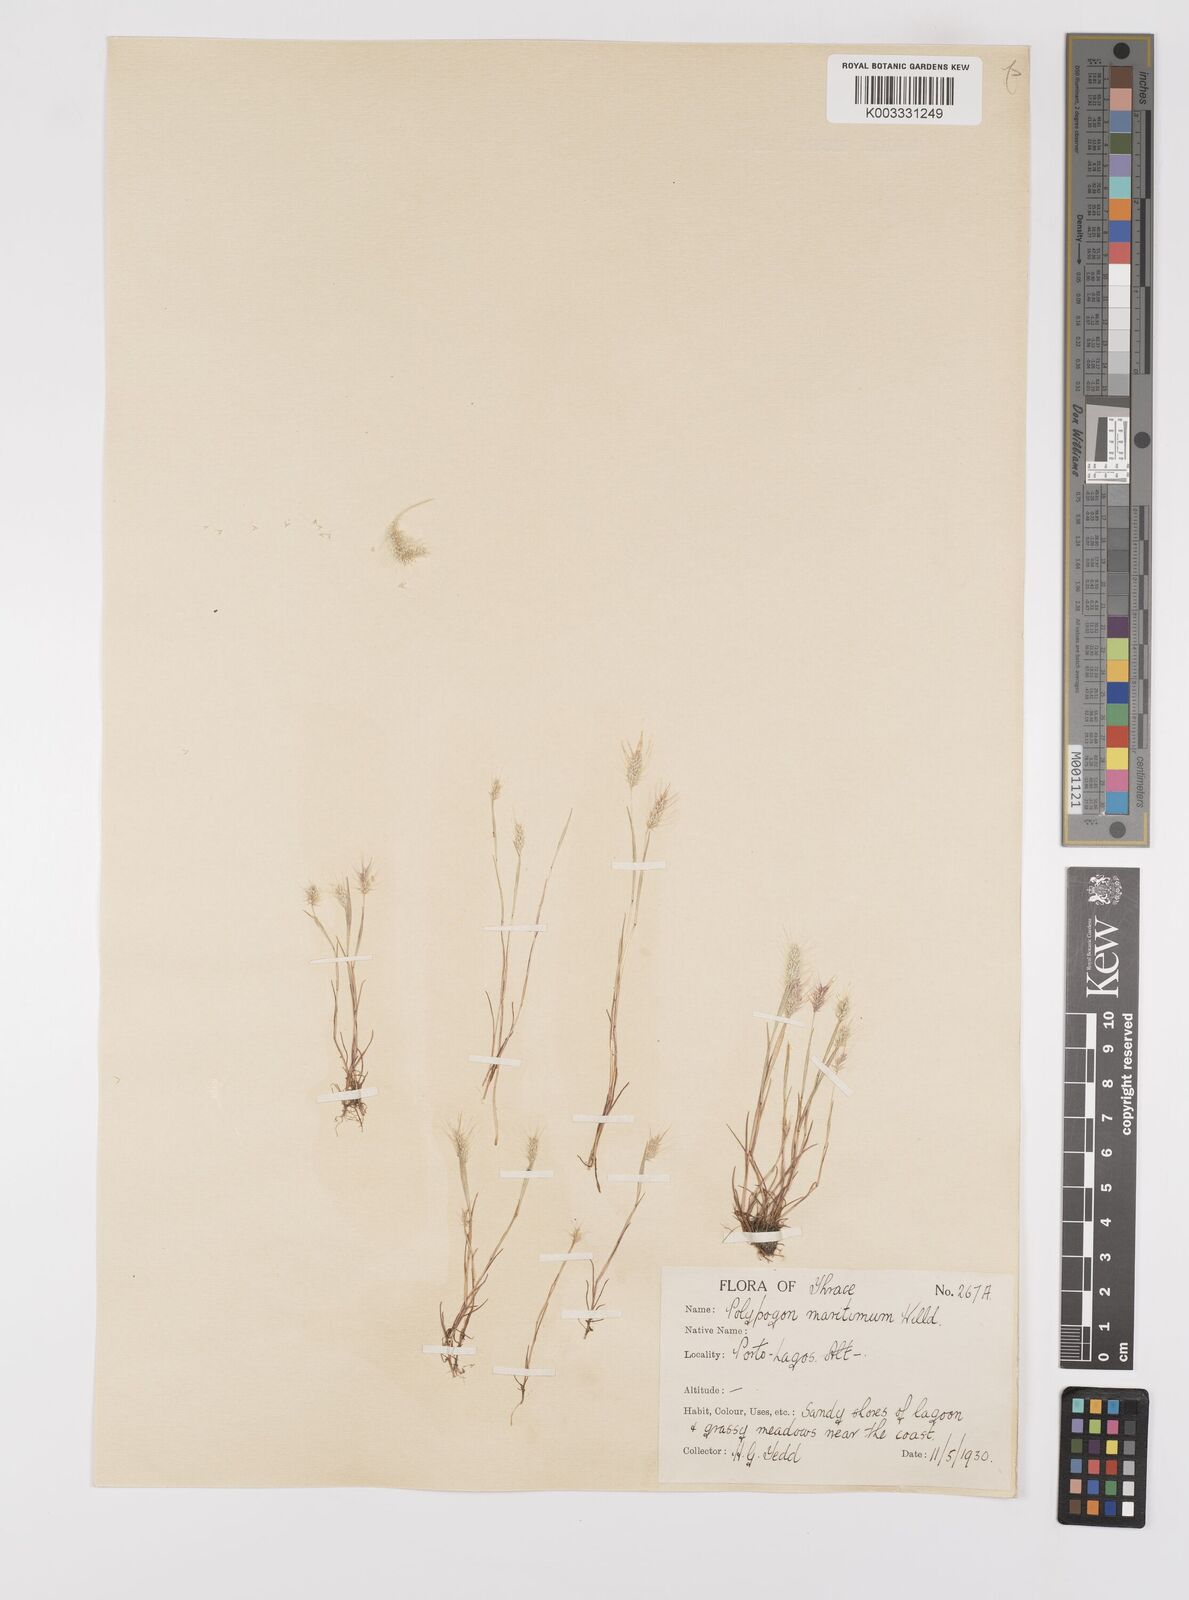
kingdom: Plantae
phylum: Tracheophyta
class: Liliopsida
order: Poales
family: Poaceae
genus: Polypogon
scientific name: Polypogon maritimus
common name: Mediterranean rabbitsfoot grass
